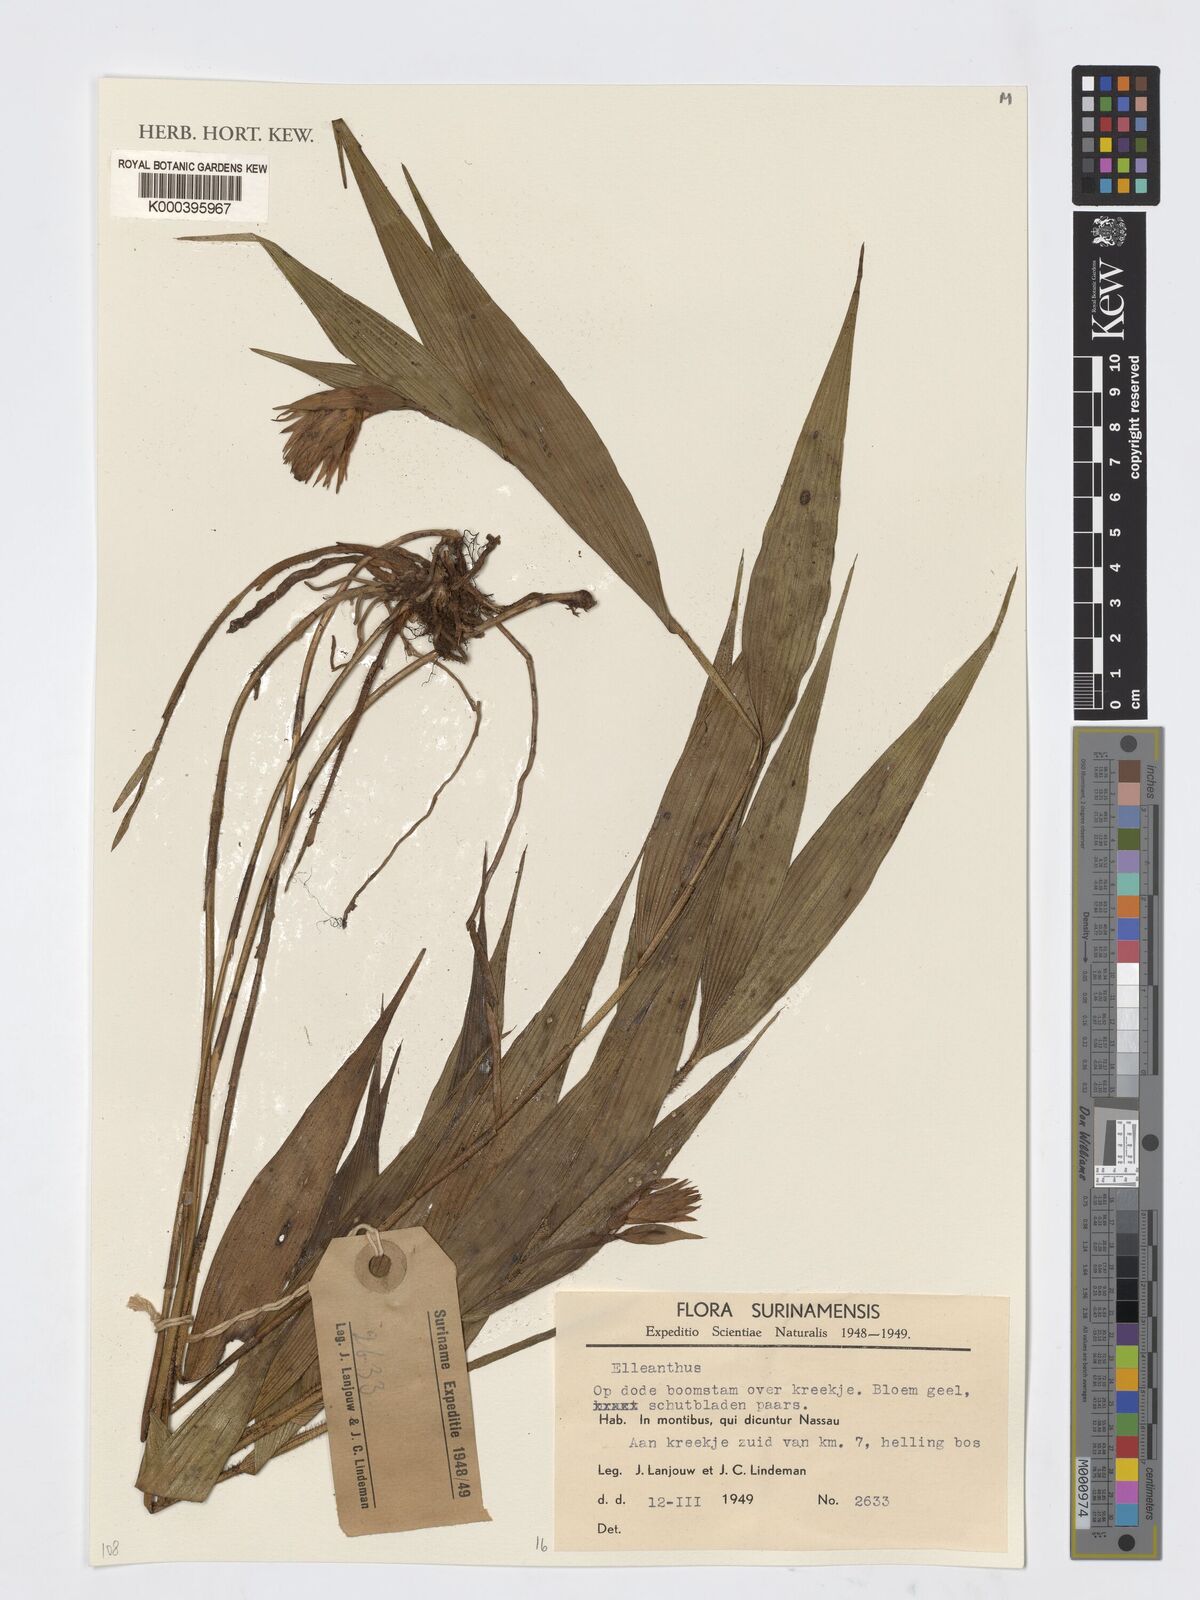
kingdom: Plantae
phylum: Tracheophyta
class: Liliopsida
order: Asparagales
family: Orchidaceae
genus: Elleanthus
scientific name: Elleanthus
